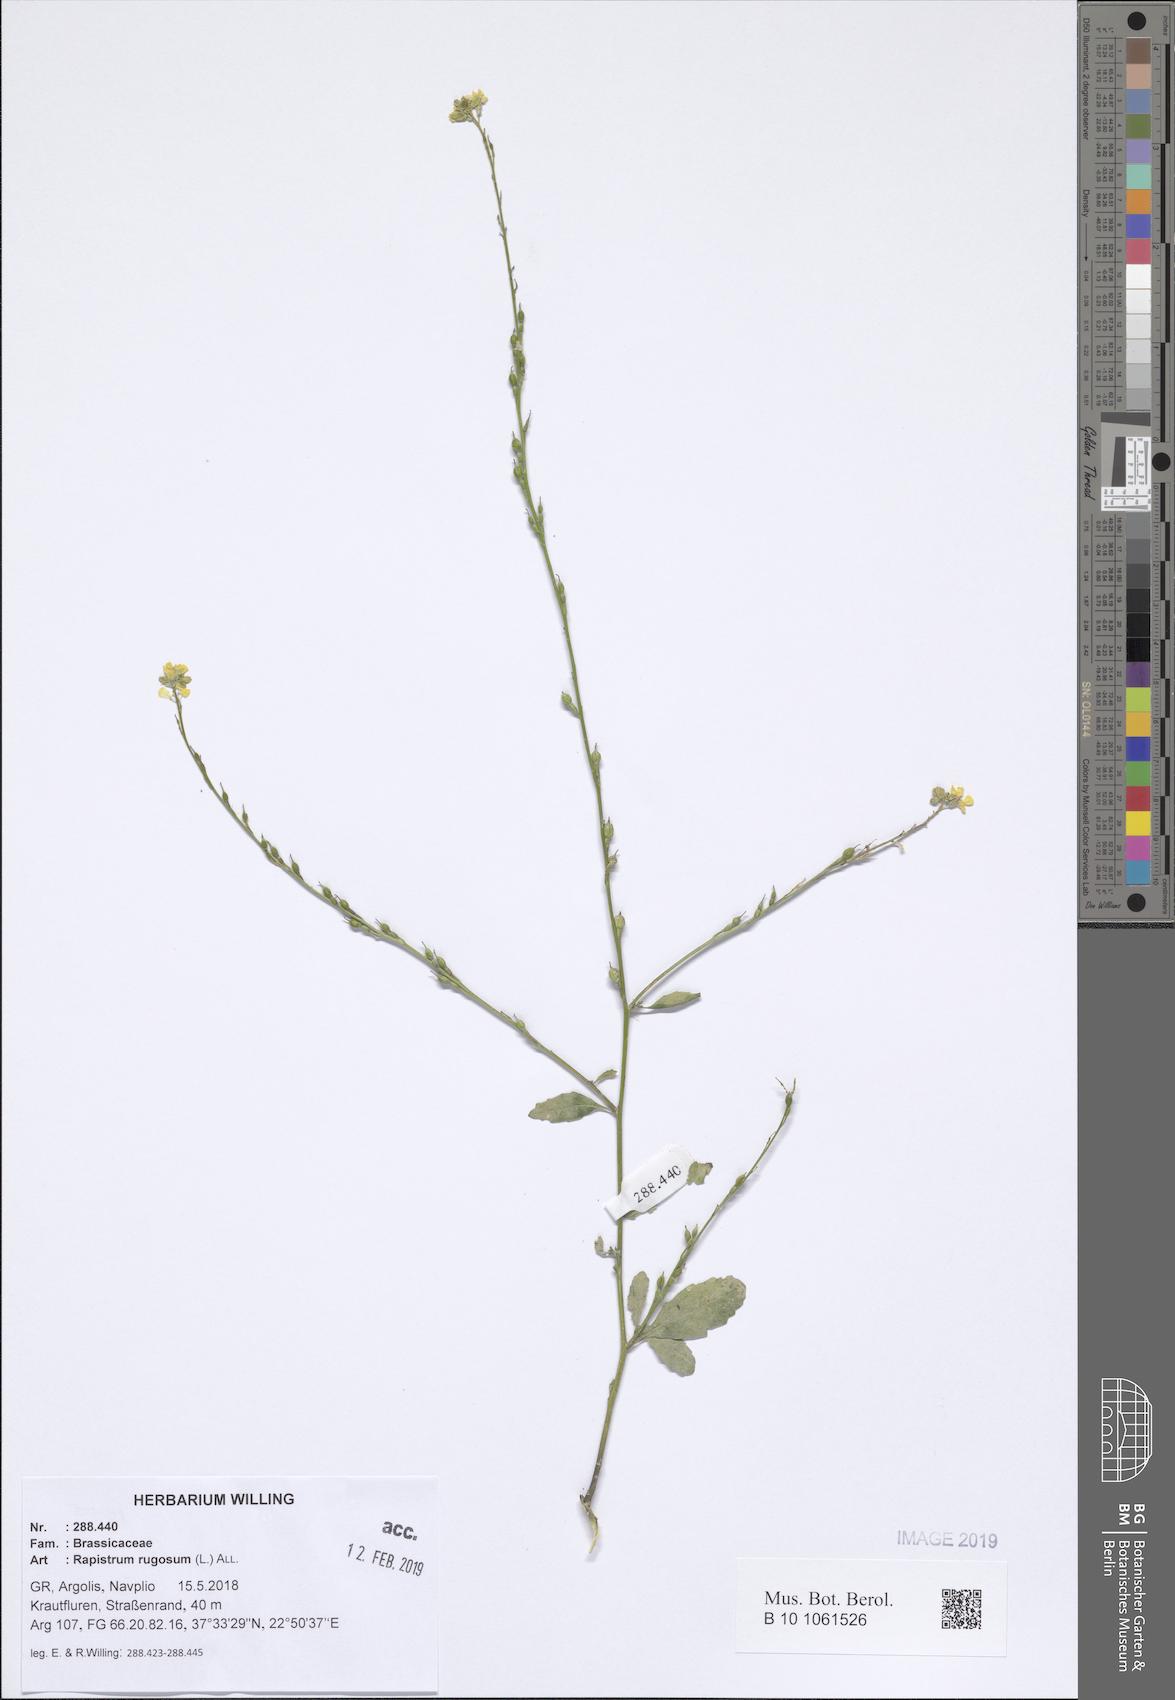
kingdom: Plantae
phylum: Tracheophyta
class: Magnoliopsida
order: Brassicales
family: Brassicaceae
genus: Rapistrum
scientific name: Rapistrum rugosum
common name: Annual bastardcabbage
